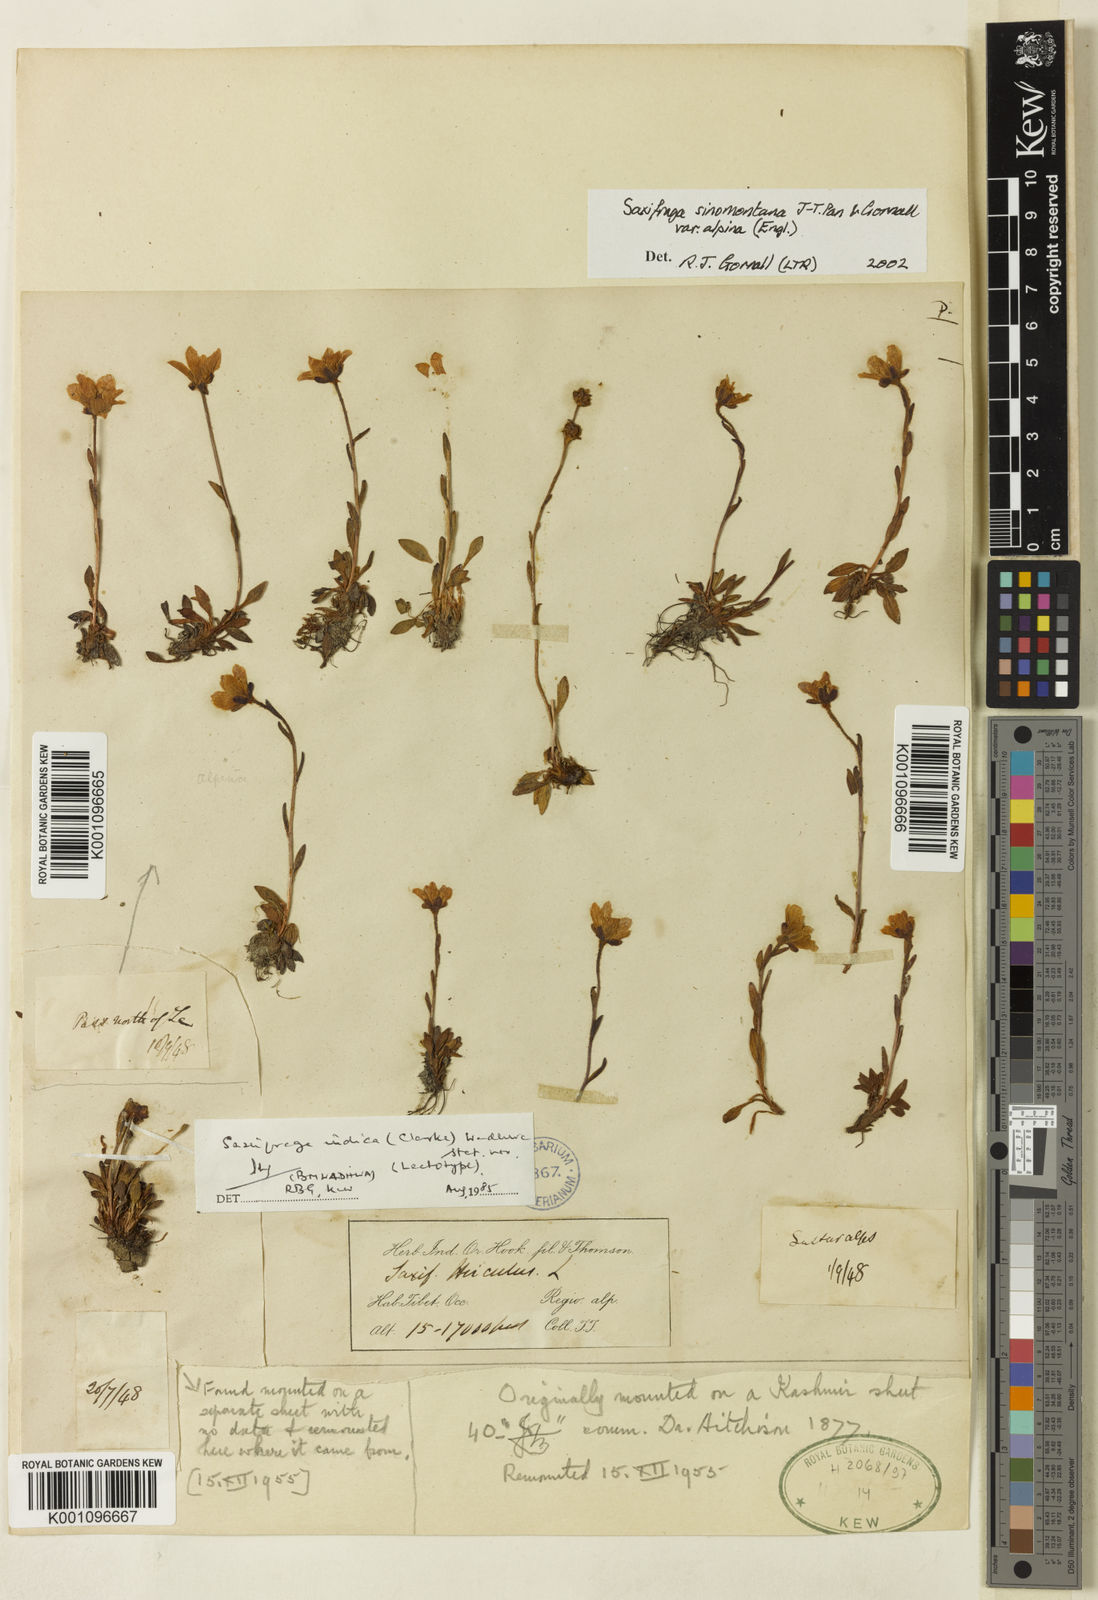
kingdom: Plantae
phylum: Tracheophyta
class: Magnoliopsida
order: Saxifragales
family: Saxifragaceae
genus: Saxifraga
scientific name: Saxifraga
